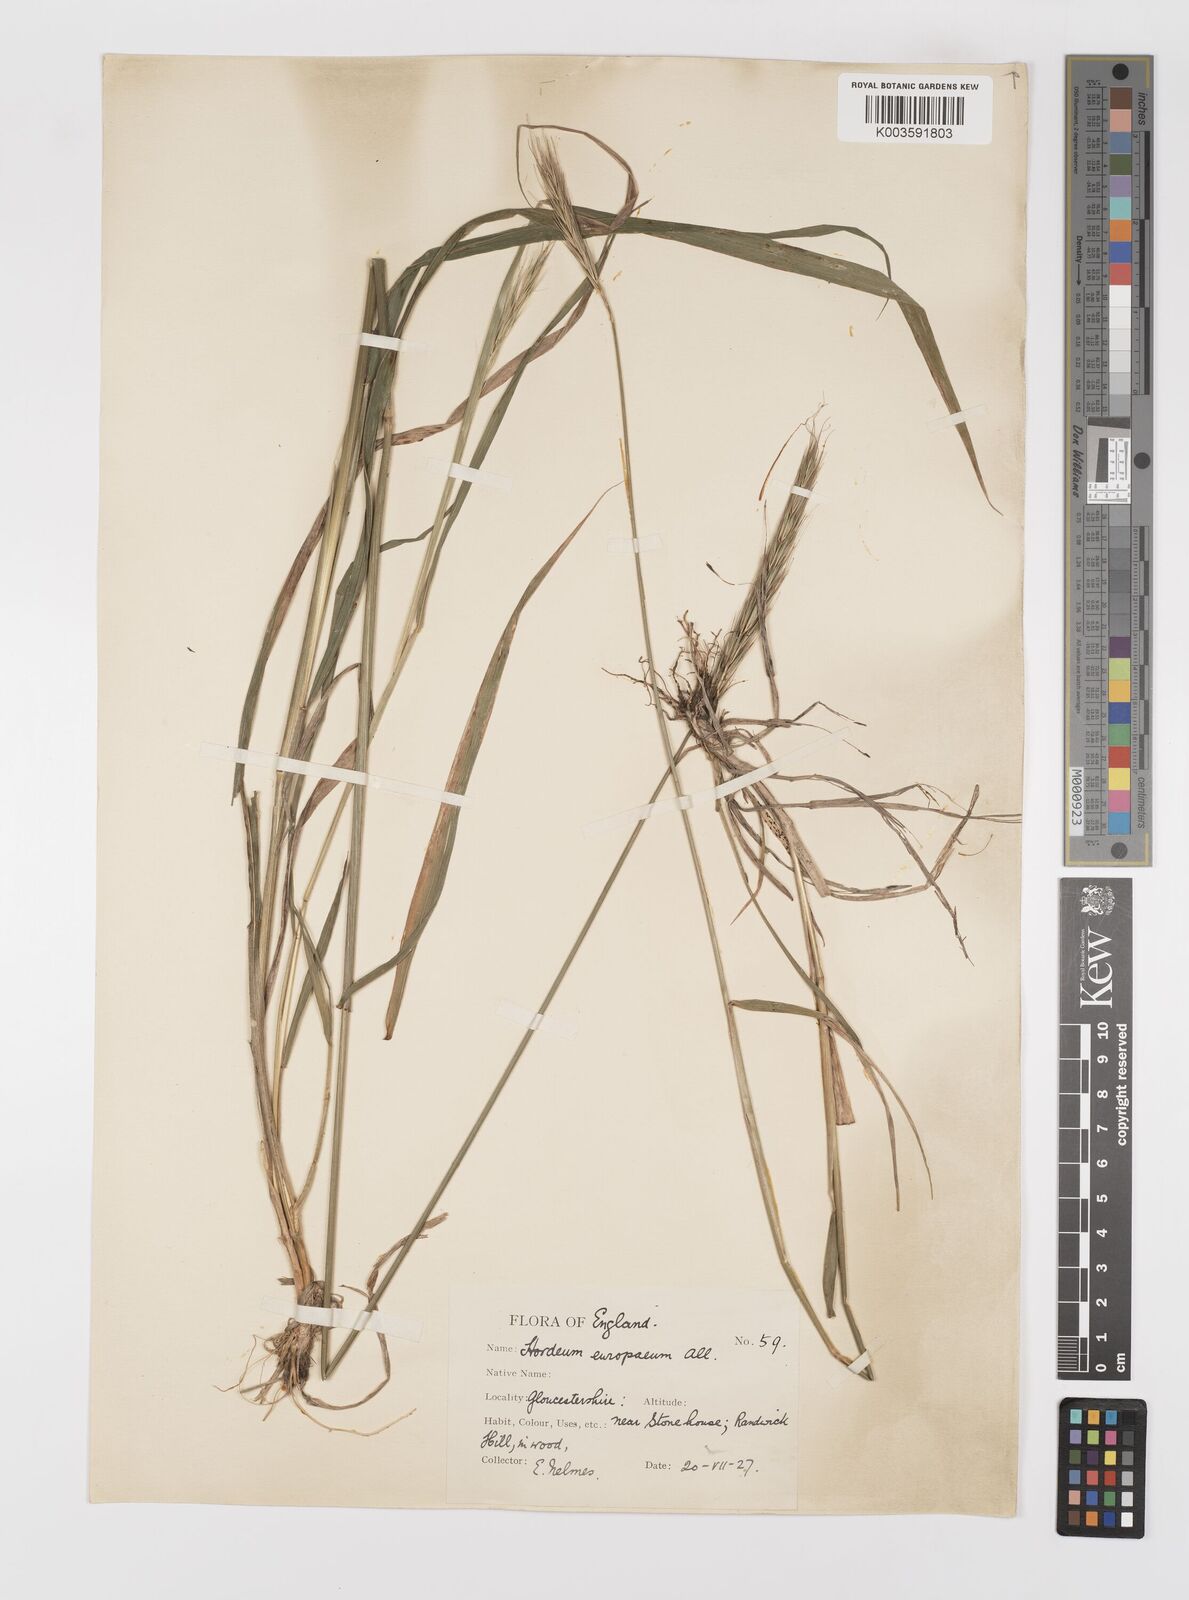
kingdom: Plantae
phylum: Tracheophyta
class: Liliopsida
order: Poales
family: Poaceae
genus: Hordelymus
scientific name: Hordelymus europaeus
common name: Wood-barley
